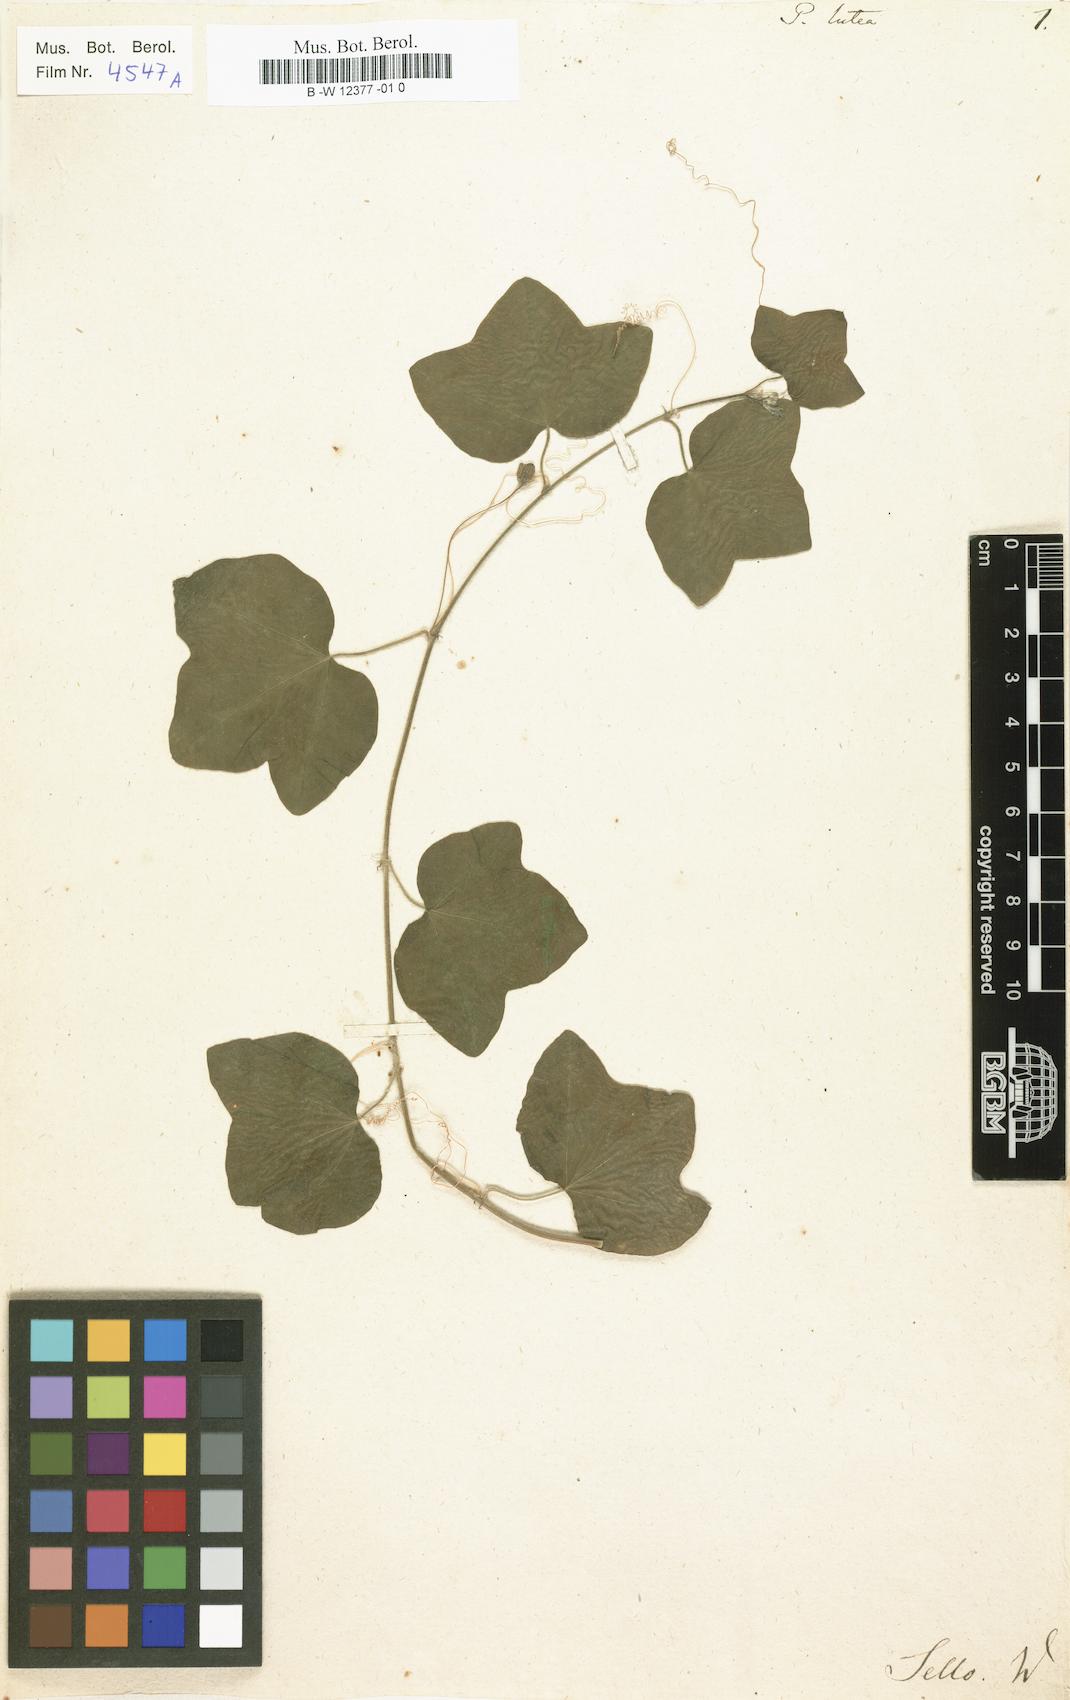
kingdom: Plantae
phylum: Tracheophyta
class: Magnoliopsida
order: Malpighiales
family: Passifloraceae
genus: Passiflora
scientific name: Passiflora lutea
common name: Yellow passionflower
